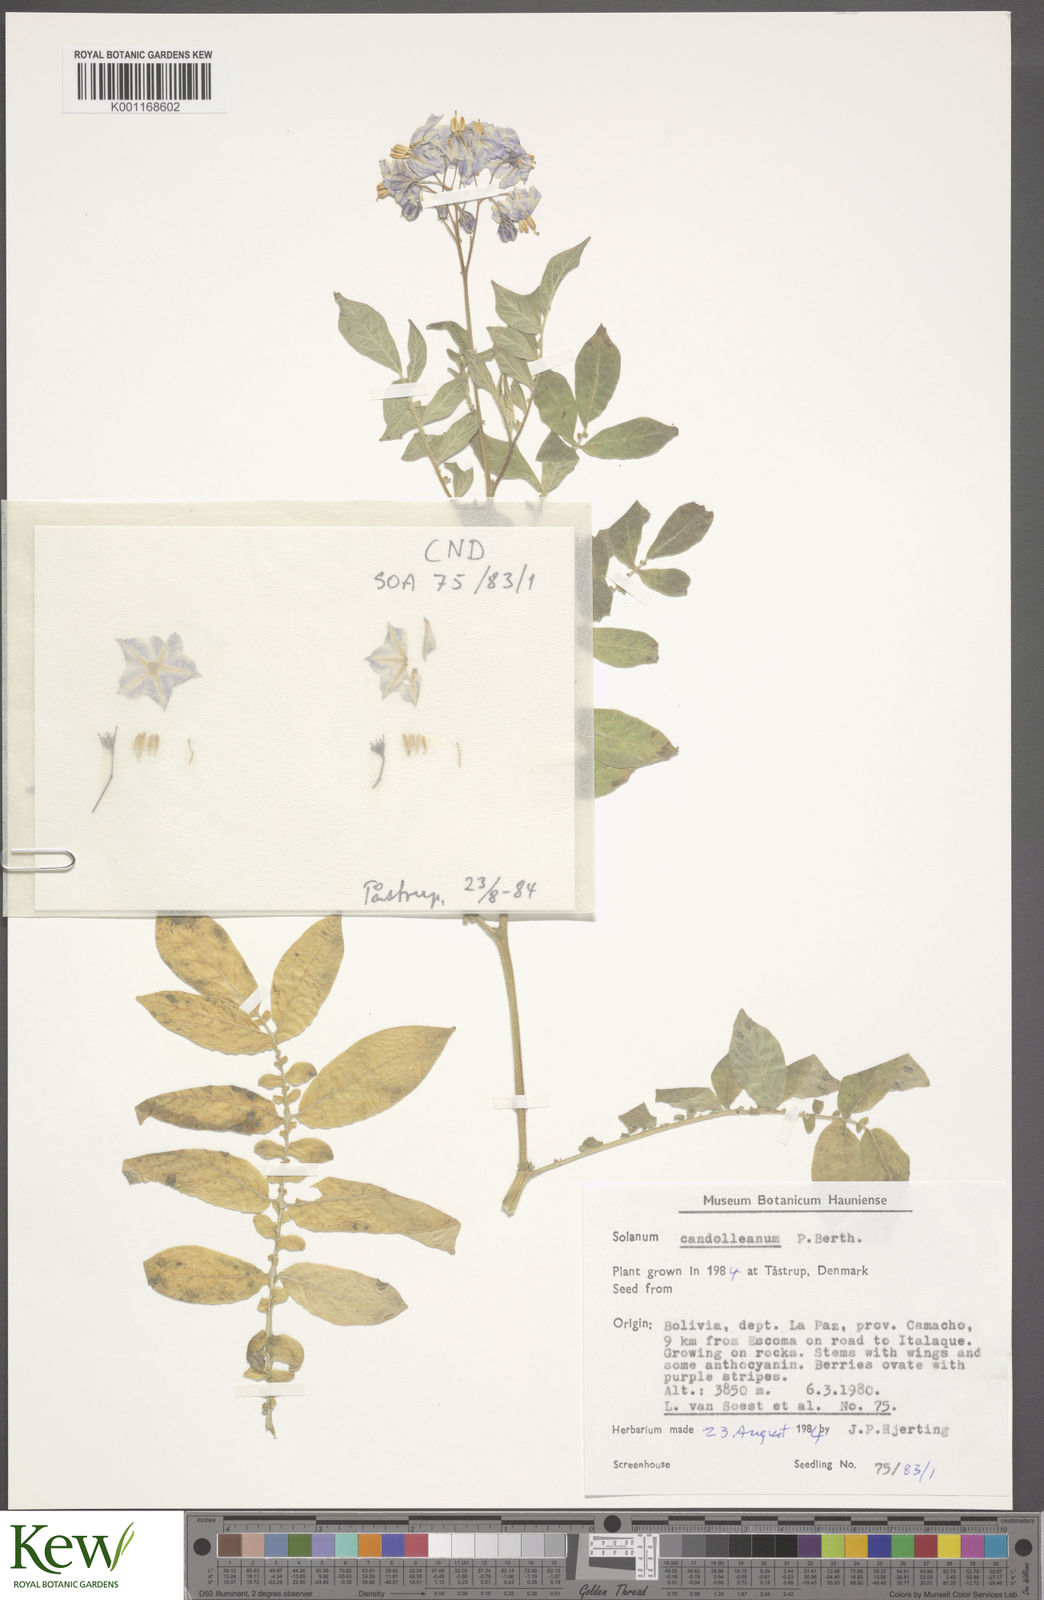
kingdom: Plantae
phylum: Tracheophyta
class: Magnoliopsida
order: Solanales
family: Solanaceae
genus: Solanum
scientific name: Solanum candolleanum
